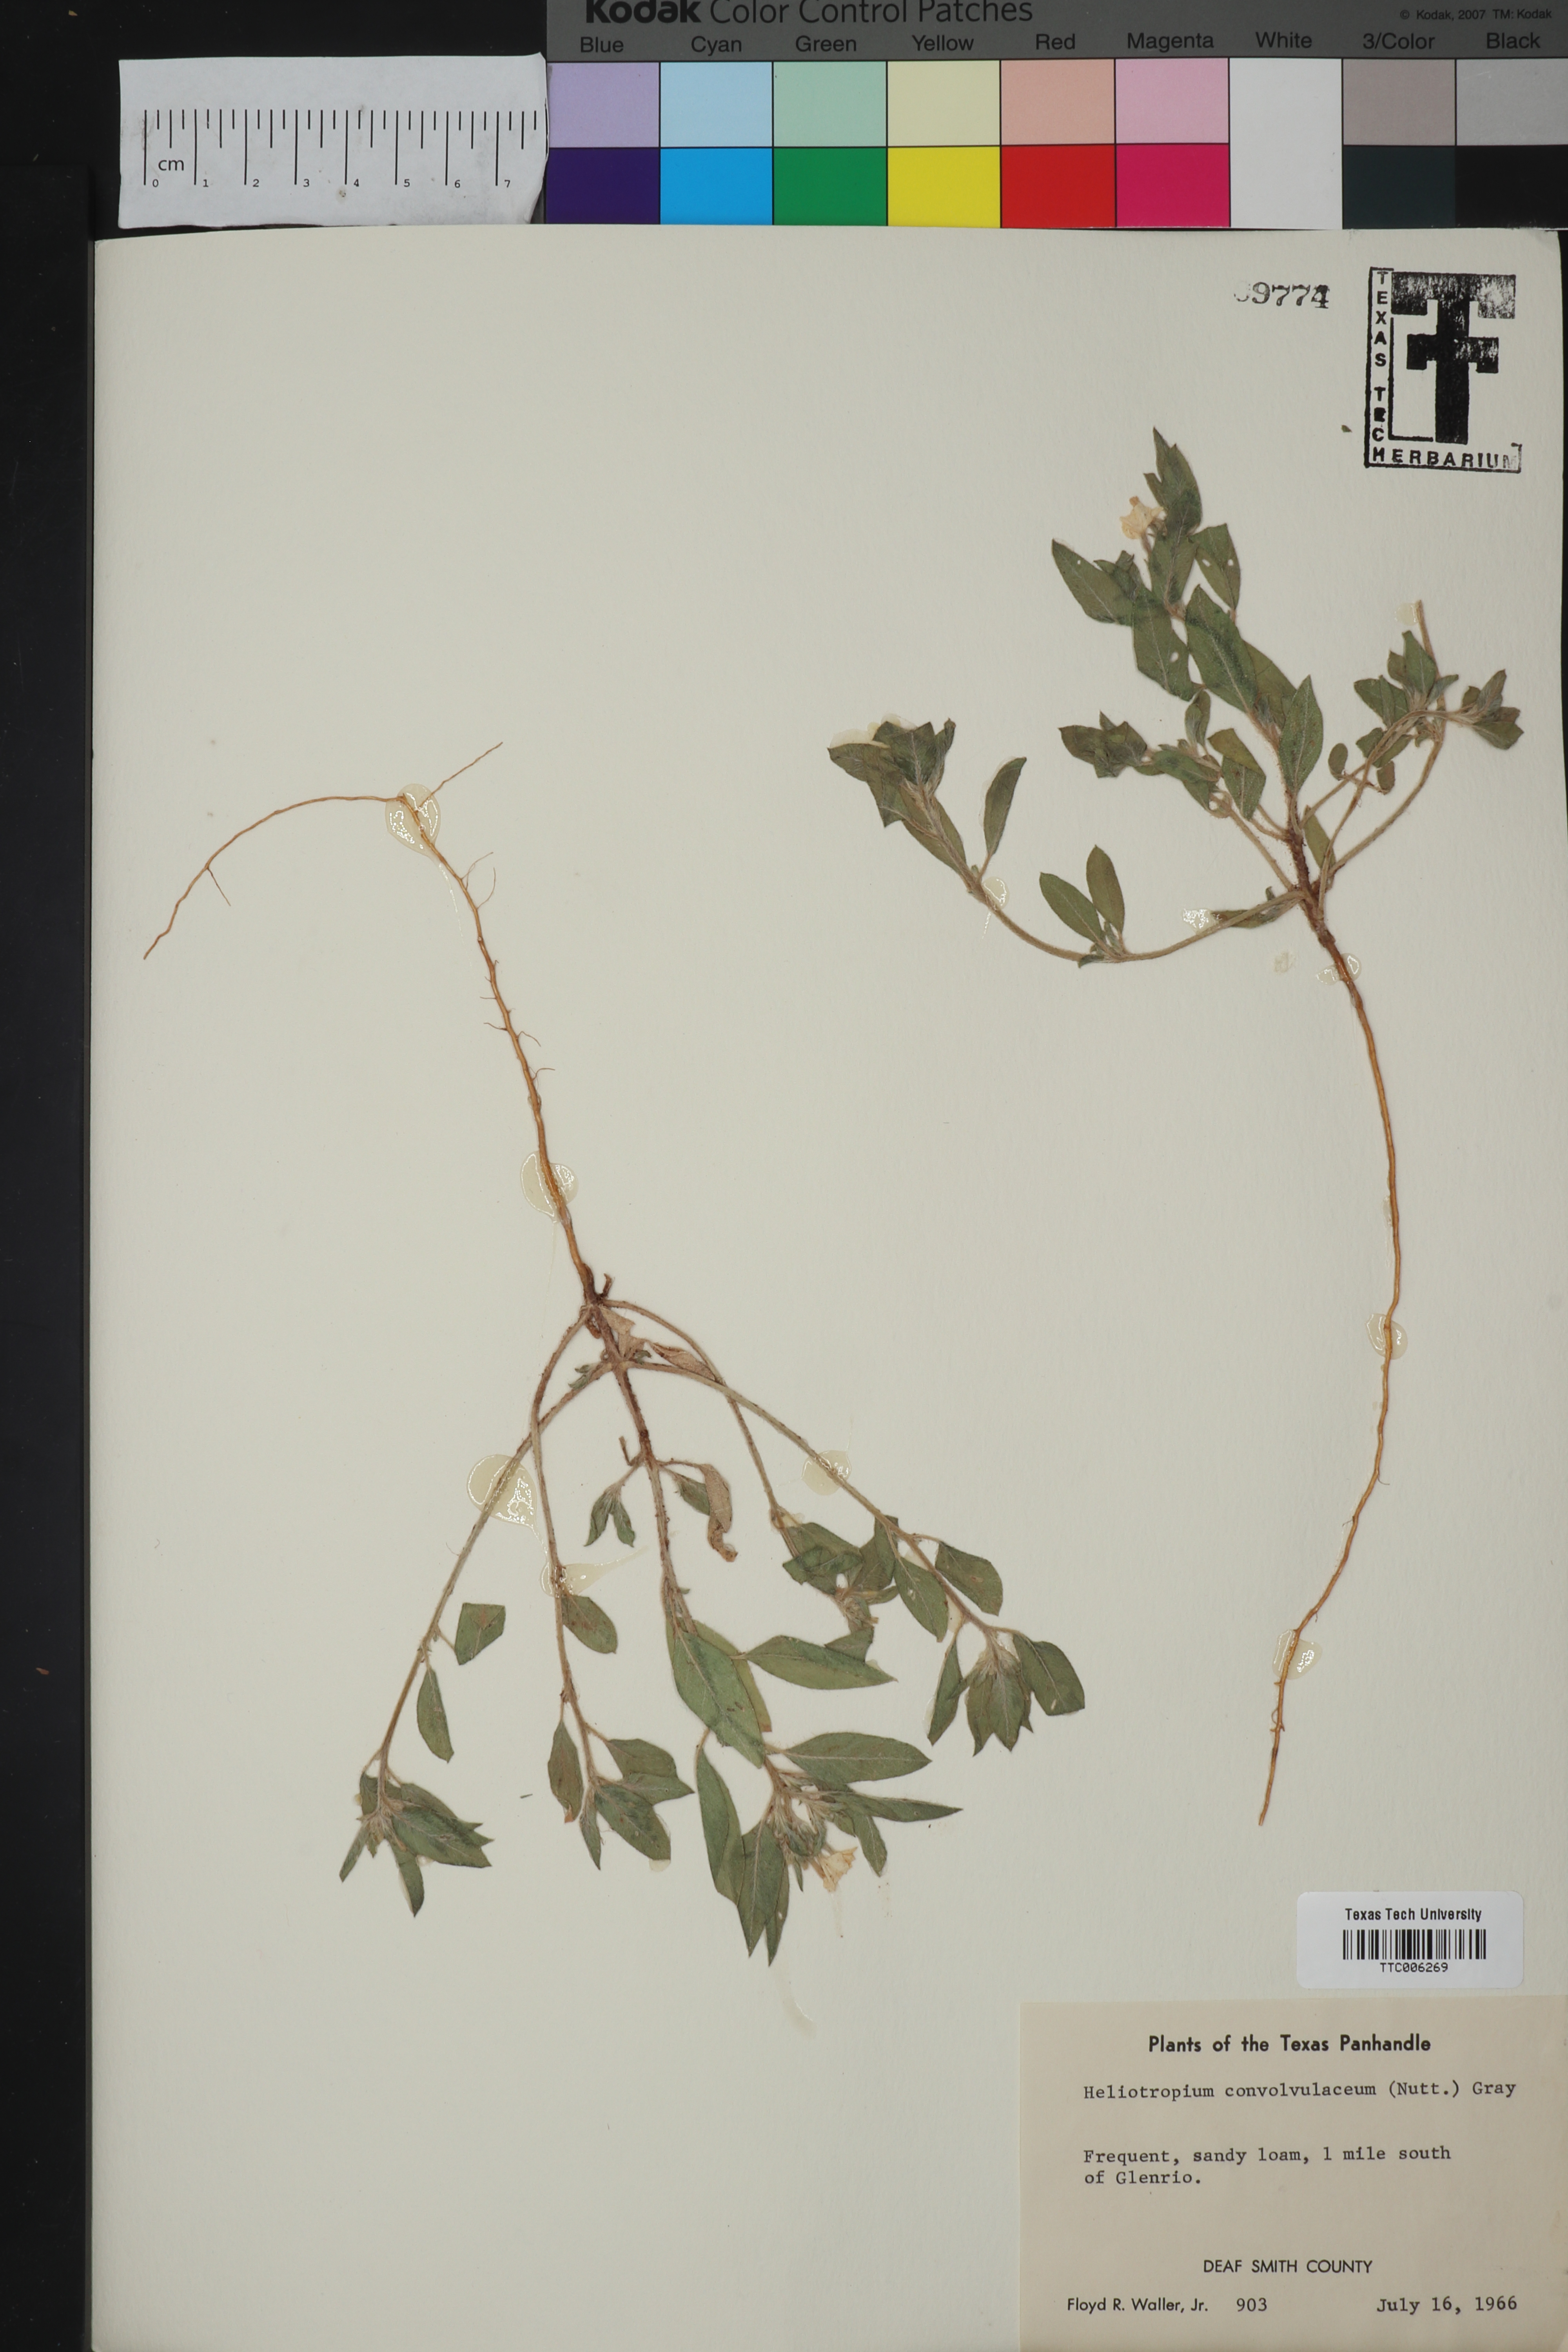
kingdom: Plantae
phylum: Tracheophyta
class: Magnoliopsida
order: Boraginales
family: Heliotropiaceae
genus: Euploca
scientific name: Euploca convolvulacea
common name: Bindweed heliotrope
